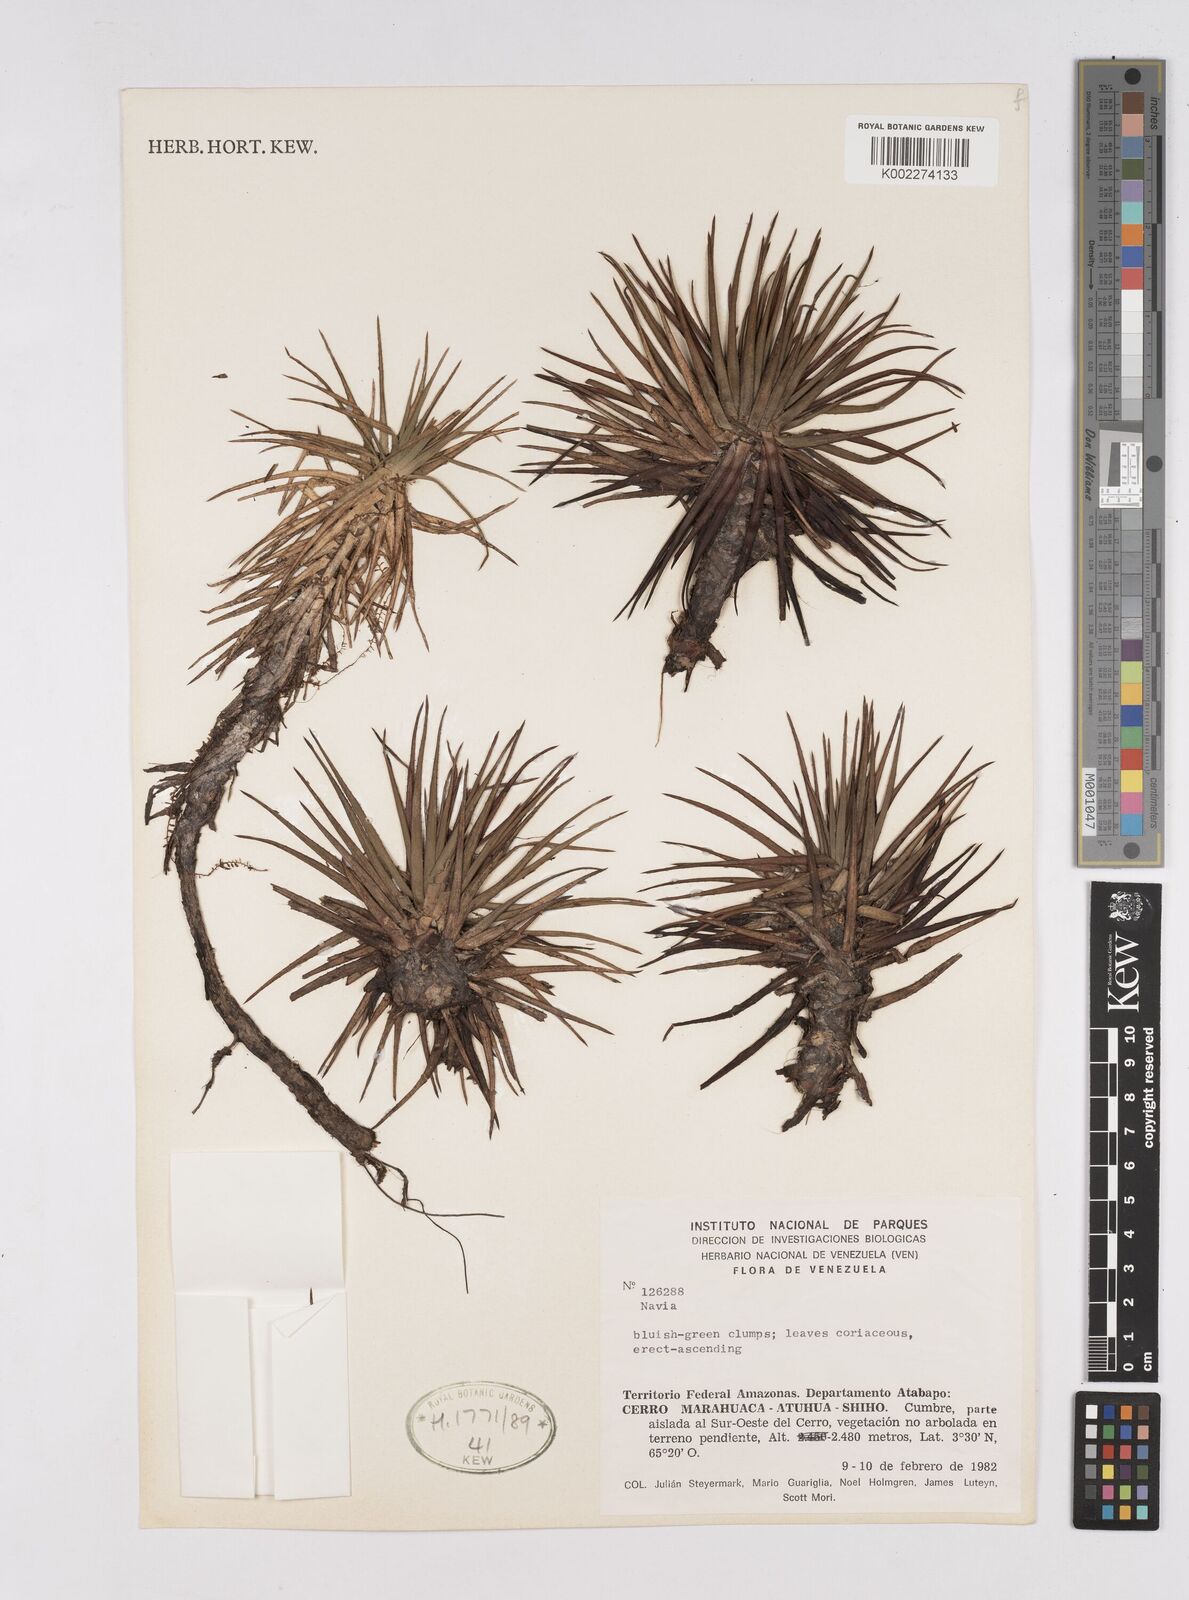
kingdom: Plantae
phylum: Tracheophyta
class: Liliopsida
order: Poales
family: Bromeliaceae
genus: Navia
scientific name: Navia
